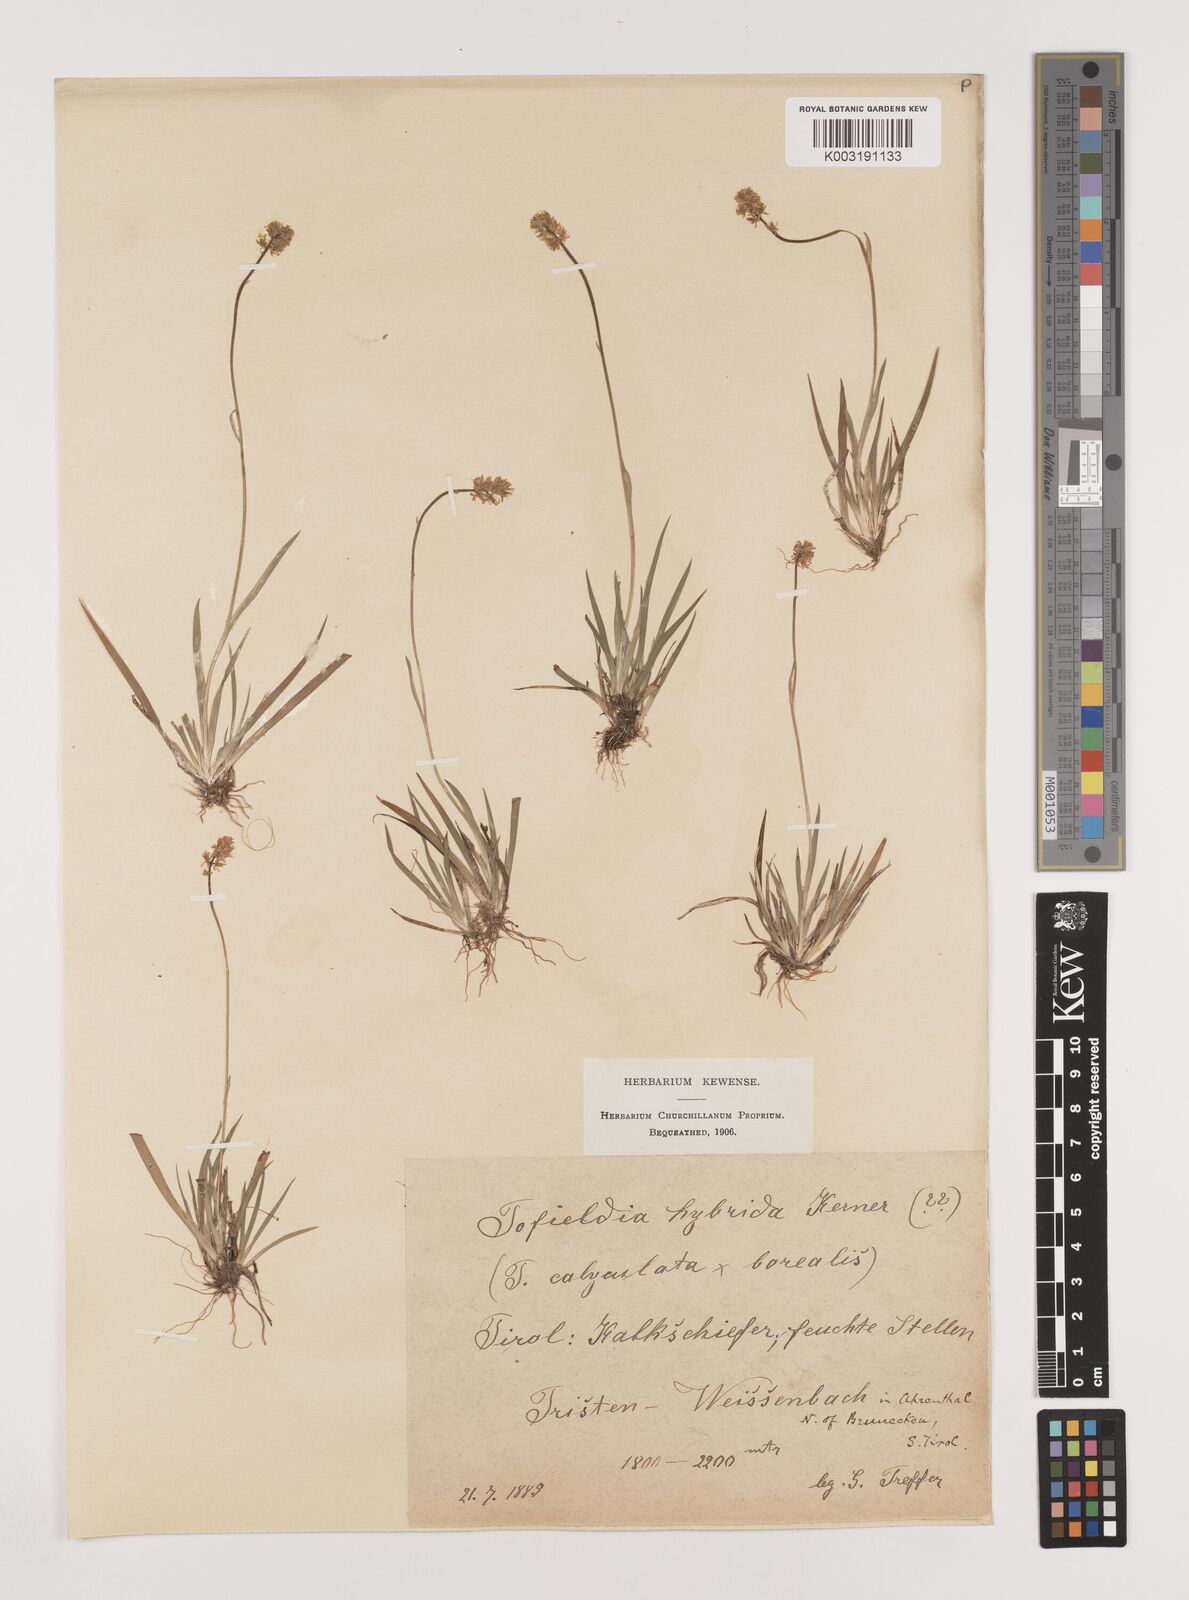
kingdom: Plantae
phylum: Tracheophyta
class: Liliopsida
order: Alismatales
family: Tofieldiaceae
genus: Tofieldia
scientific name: Tofieldia hybrida
